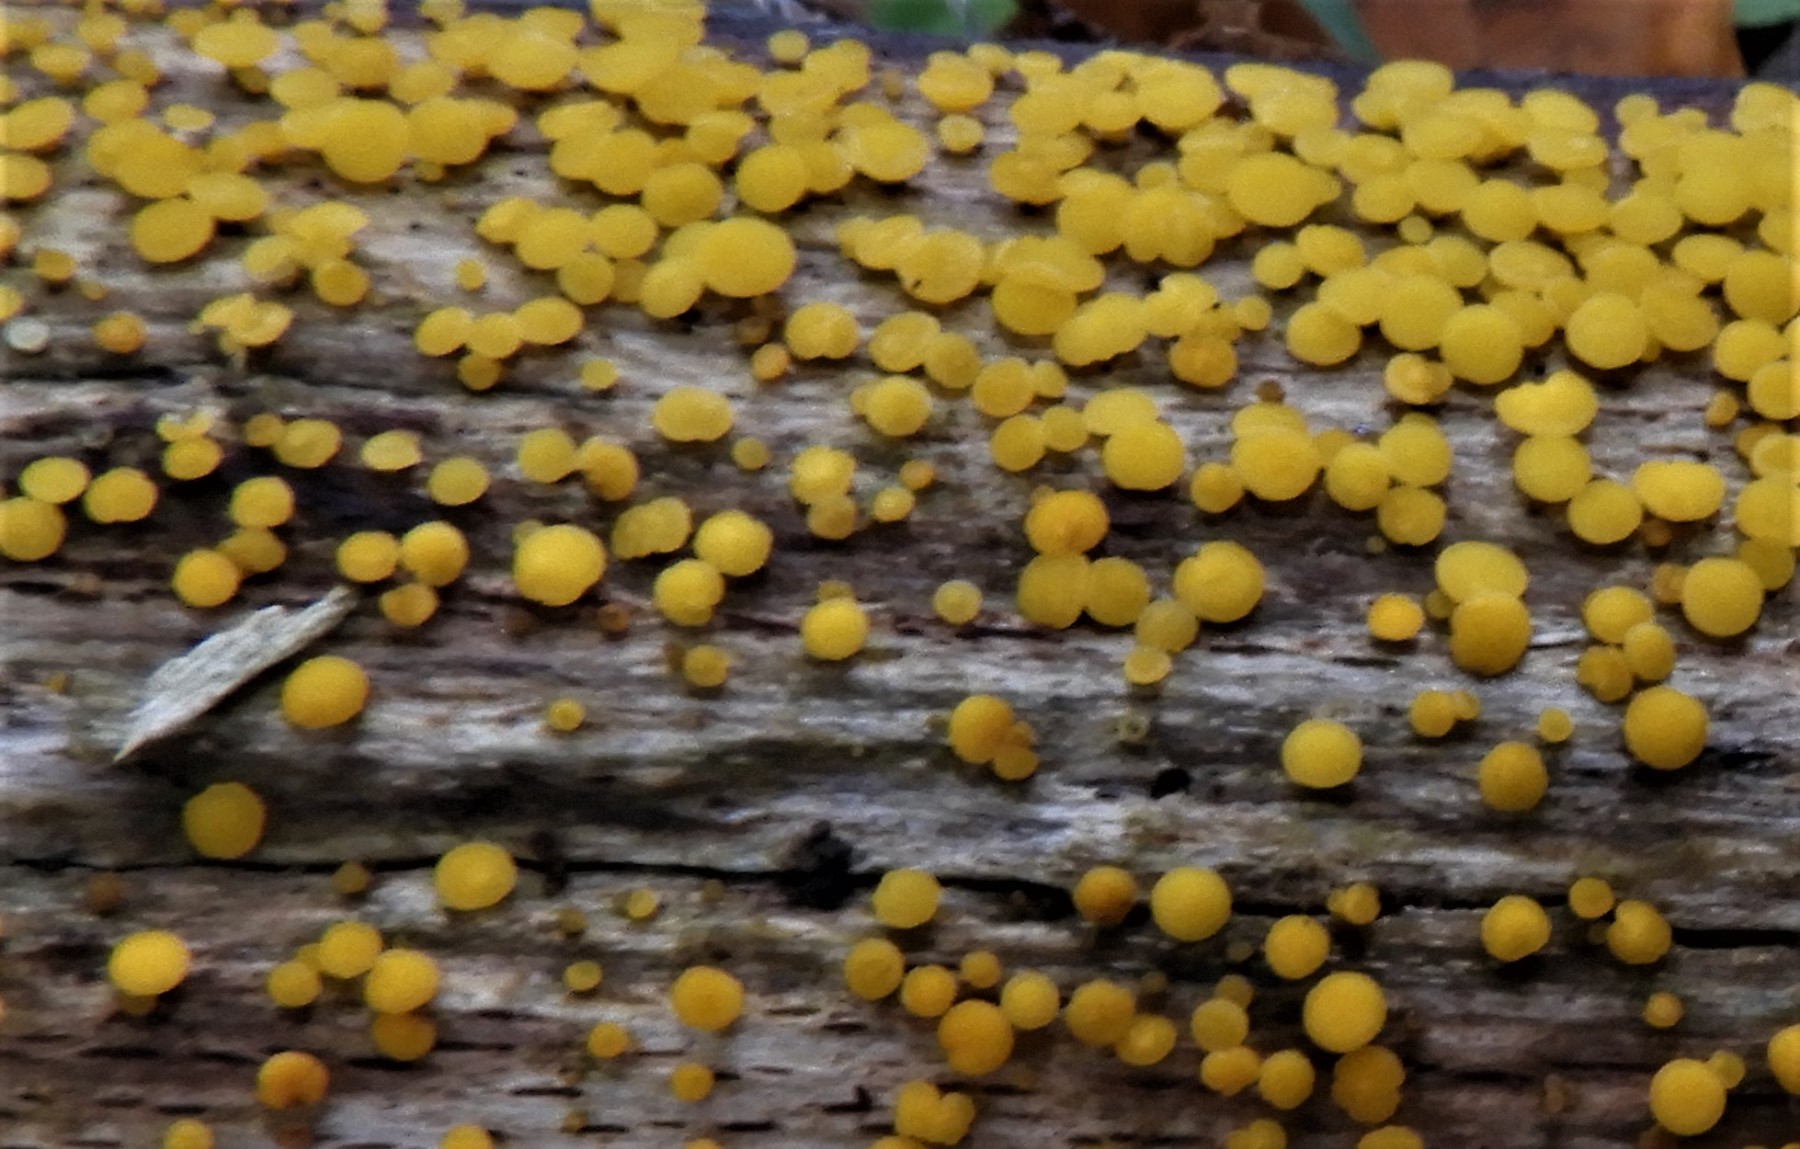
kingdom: Fungi
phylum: Ascomycota
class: Leotiomycetes
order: Helotiales
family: Pezizellaceae
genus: Calycina
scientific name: Calycina citrina
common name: almindelig gulskive
